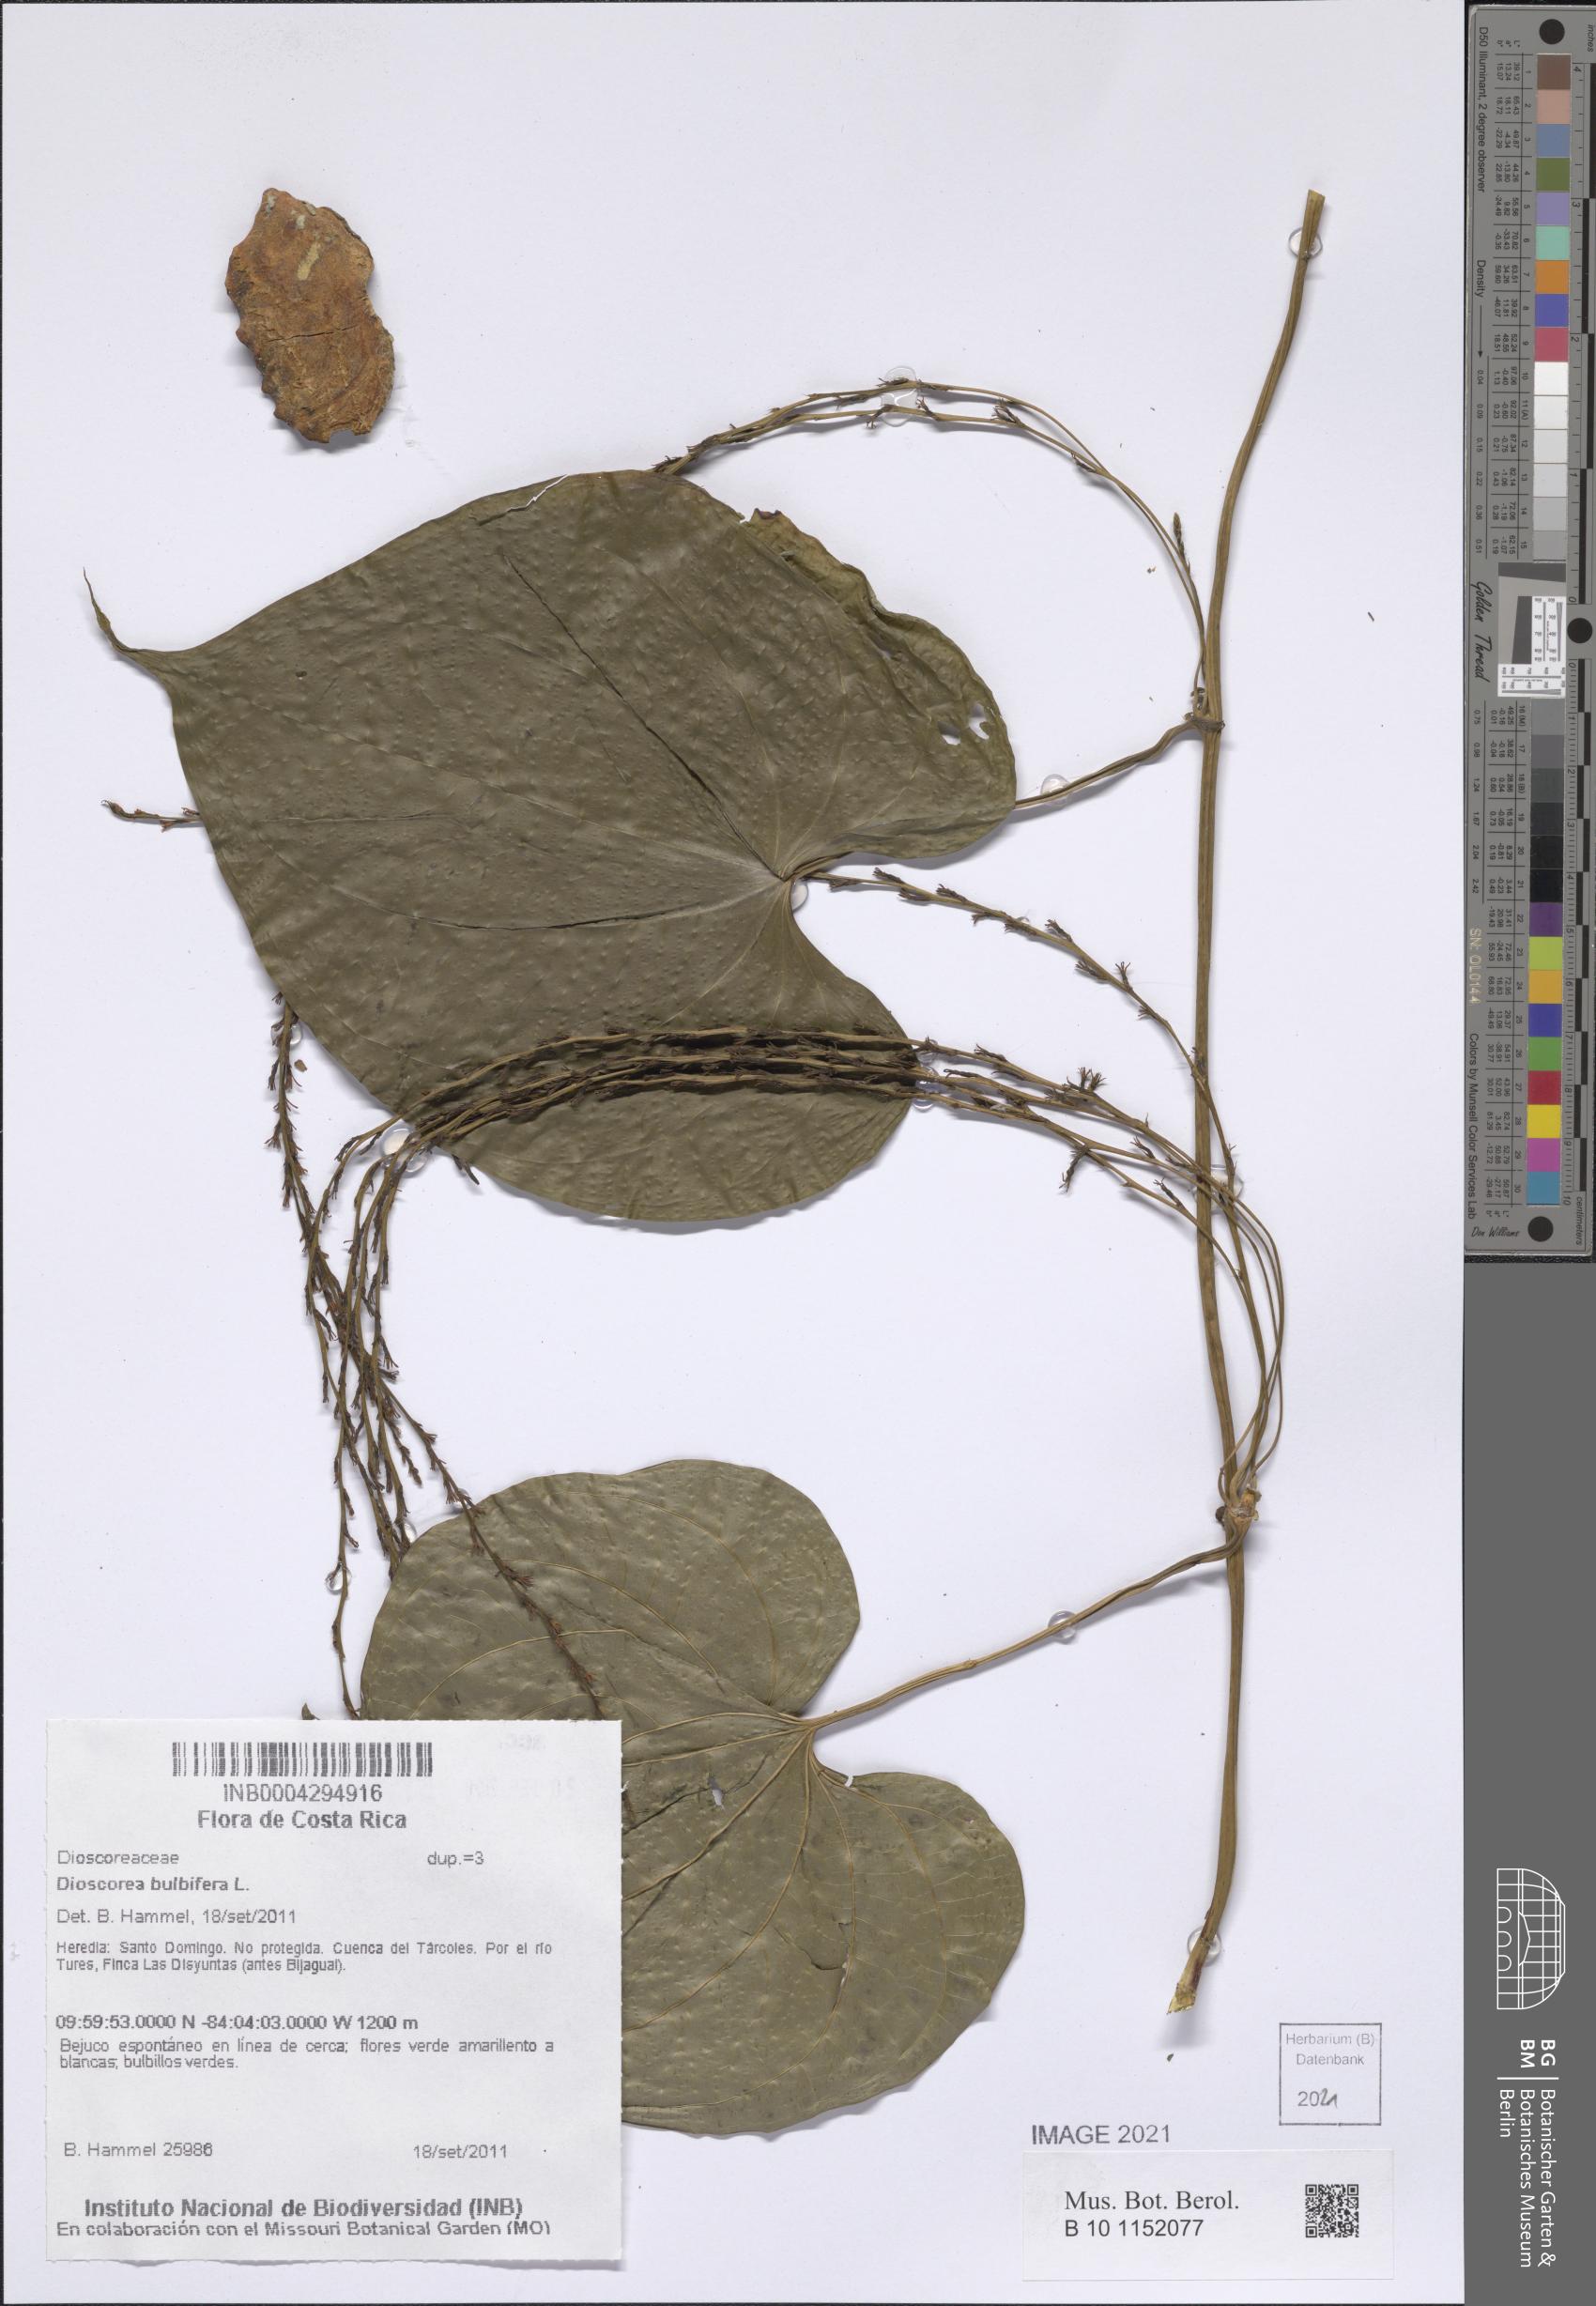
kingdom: Plantae
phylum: Tracheophyta
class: Liliopsida
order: Dioscoreales
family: Dioscoreaceae
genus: Dioscorea
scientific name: Dioscorea bulbifera
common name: Air yam
